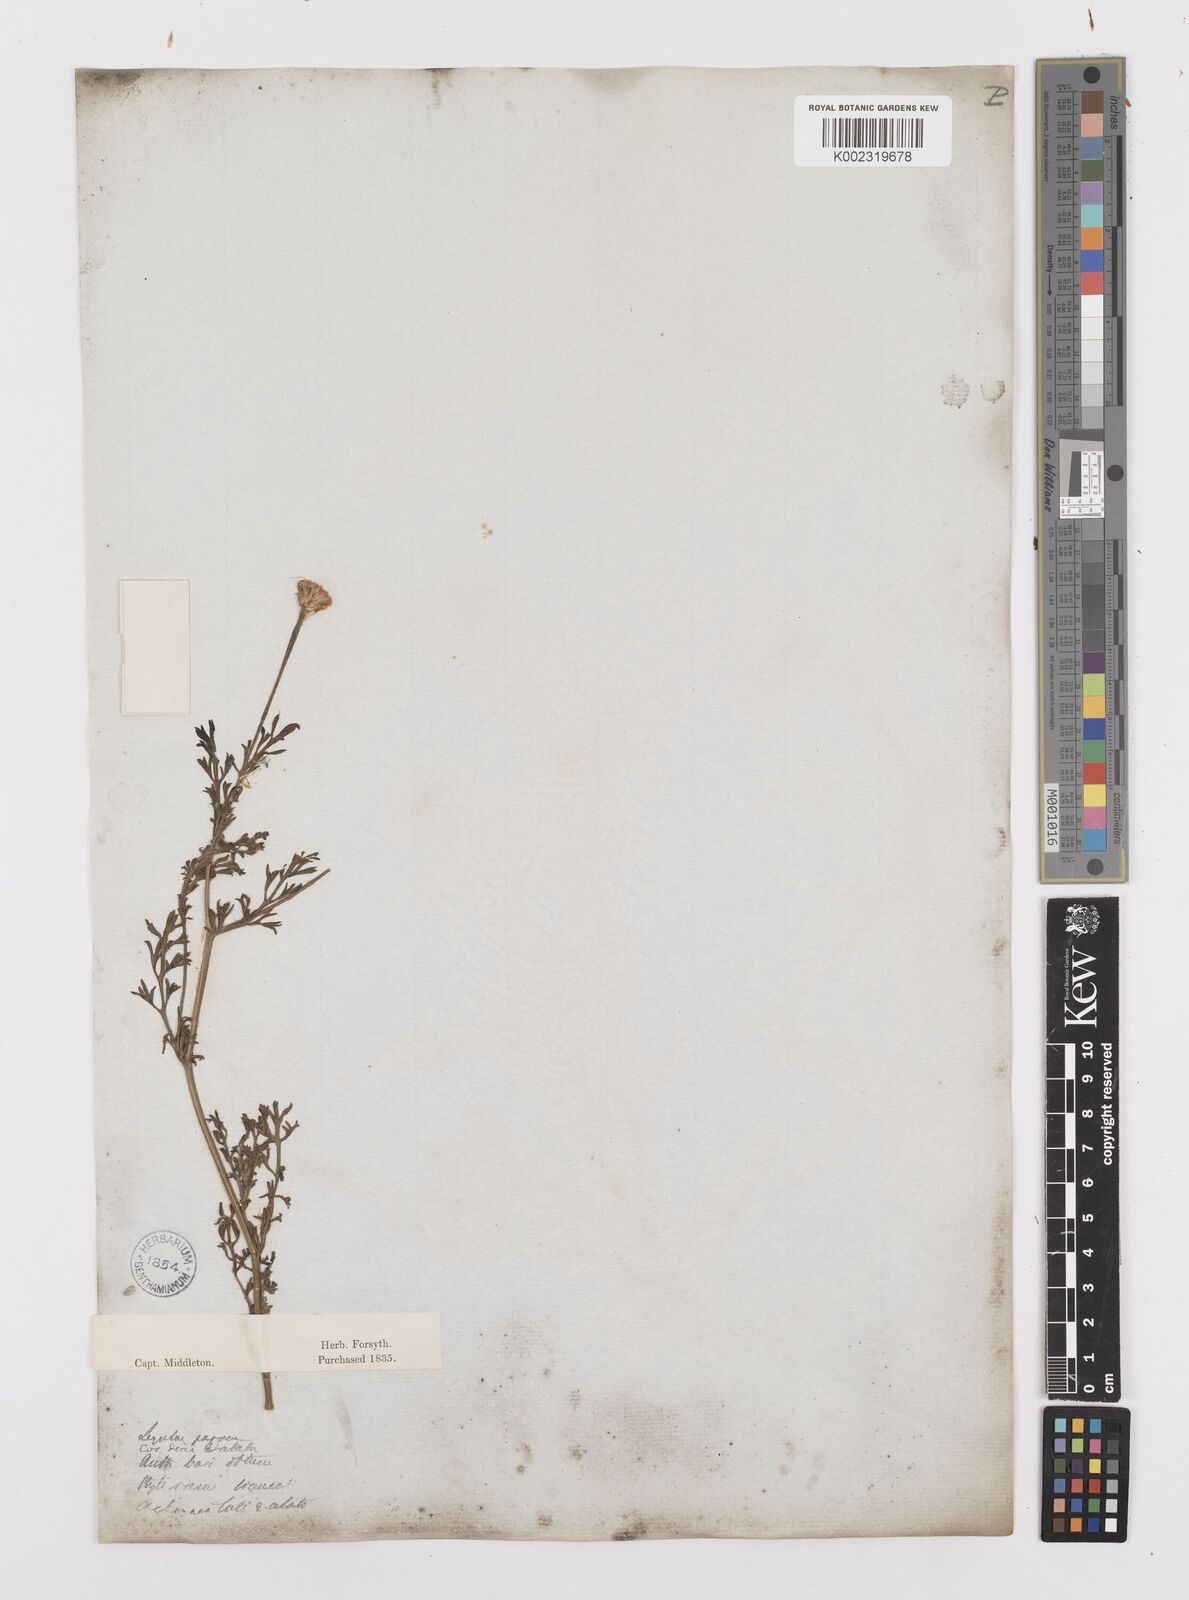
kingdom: Plantae
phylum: Tracheophyta
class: Magnoliopsida
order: Asterales
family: Asteraceae
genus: Anacyclus
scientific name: Anacyclus valentinus
